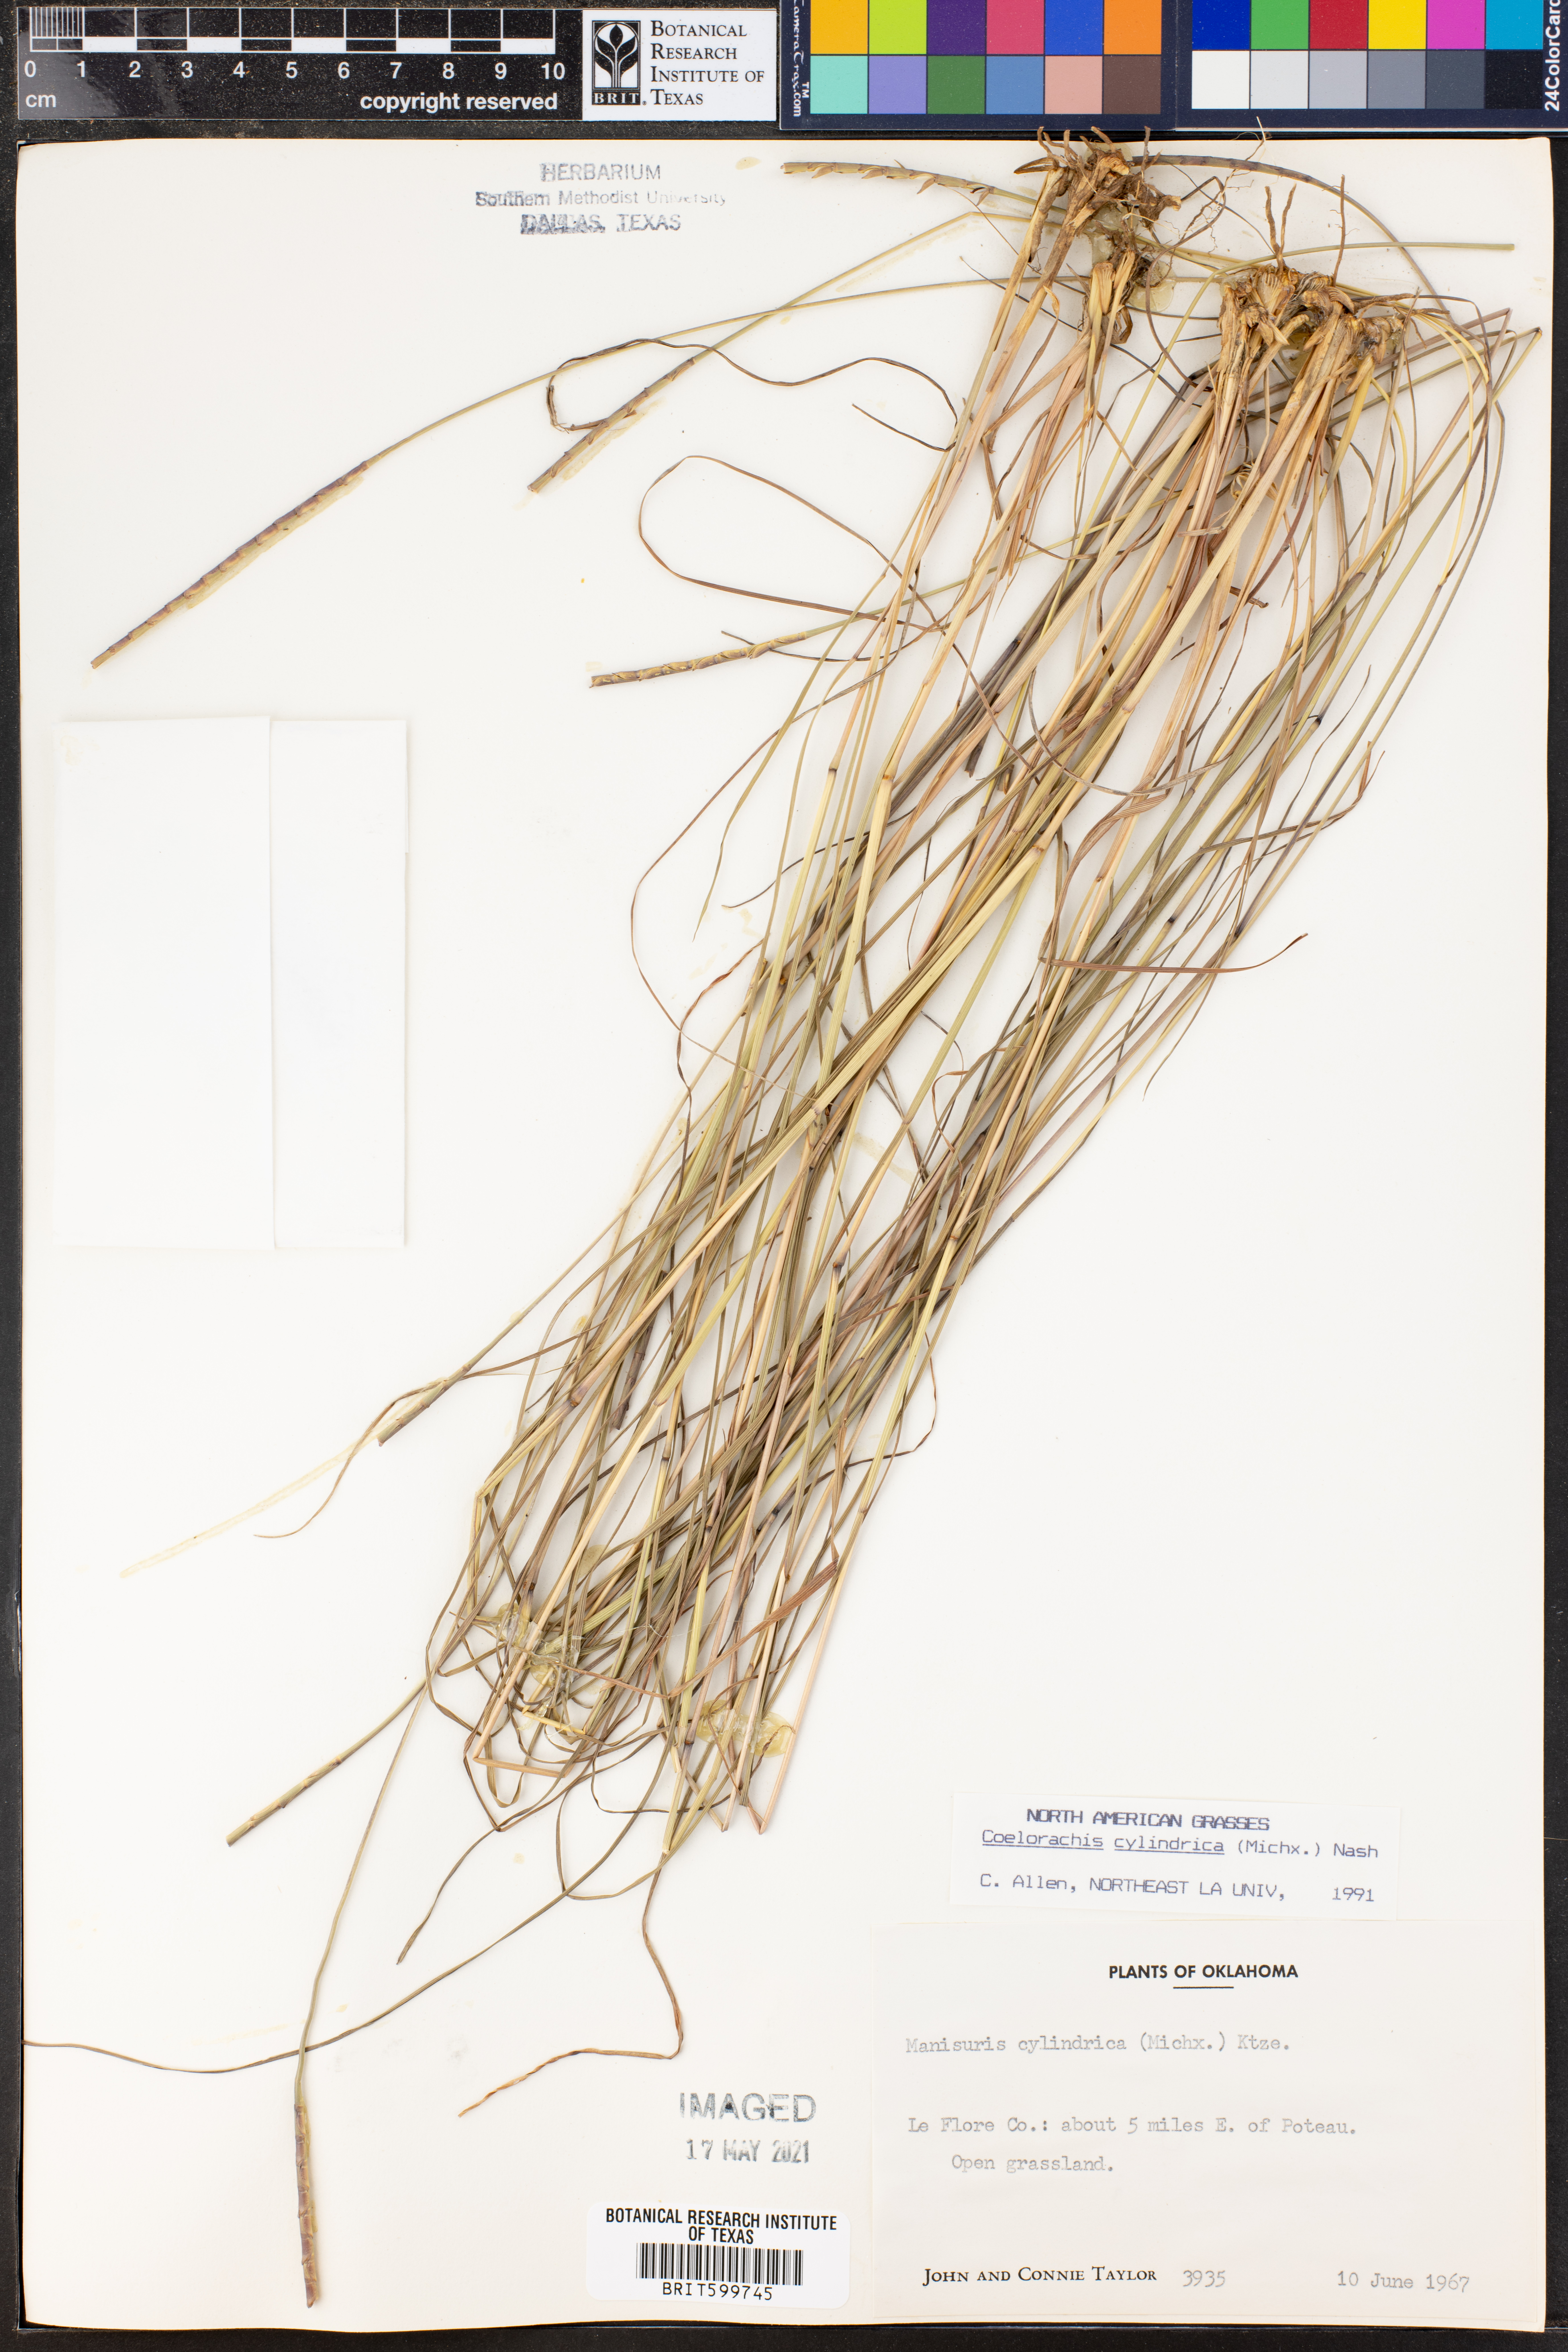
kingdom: Plantae
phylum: Tracheophyta
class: Liliopsida
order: Poales
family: Poaceae
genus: Rottboellia
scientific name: Rottboellia campestris
